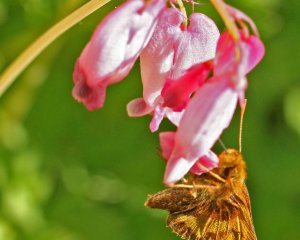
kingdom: Animalia
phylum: Arthropoda
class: Insecta
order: Lepidoptera
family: Hesperiidae
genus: Lon
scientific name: Lon hobomok
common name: Hobomok Skipper
